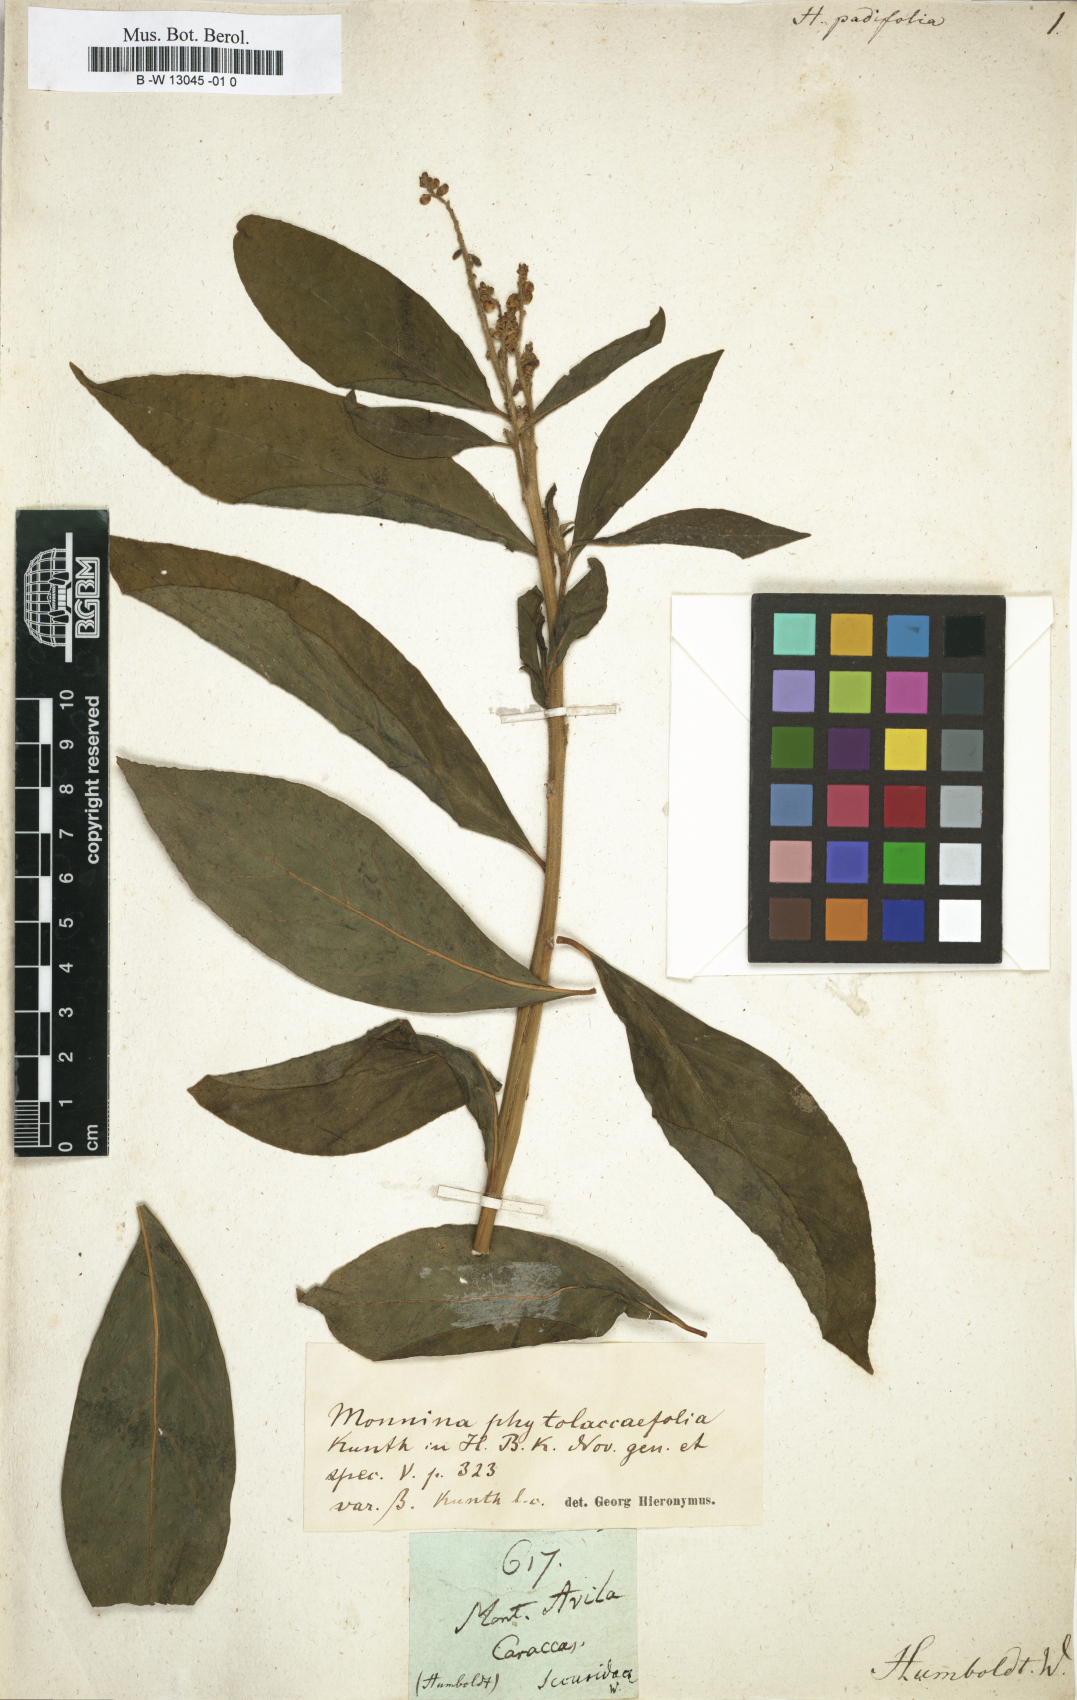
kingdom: Plantae
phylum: Tracheophyta
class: Magnoliopsida
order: Fabales
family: Polygalaceae
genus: Monnina
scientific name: Monnina padifolia
